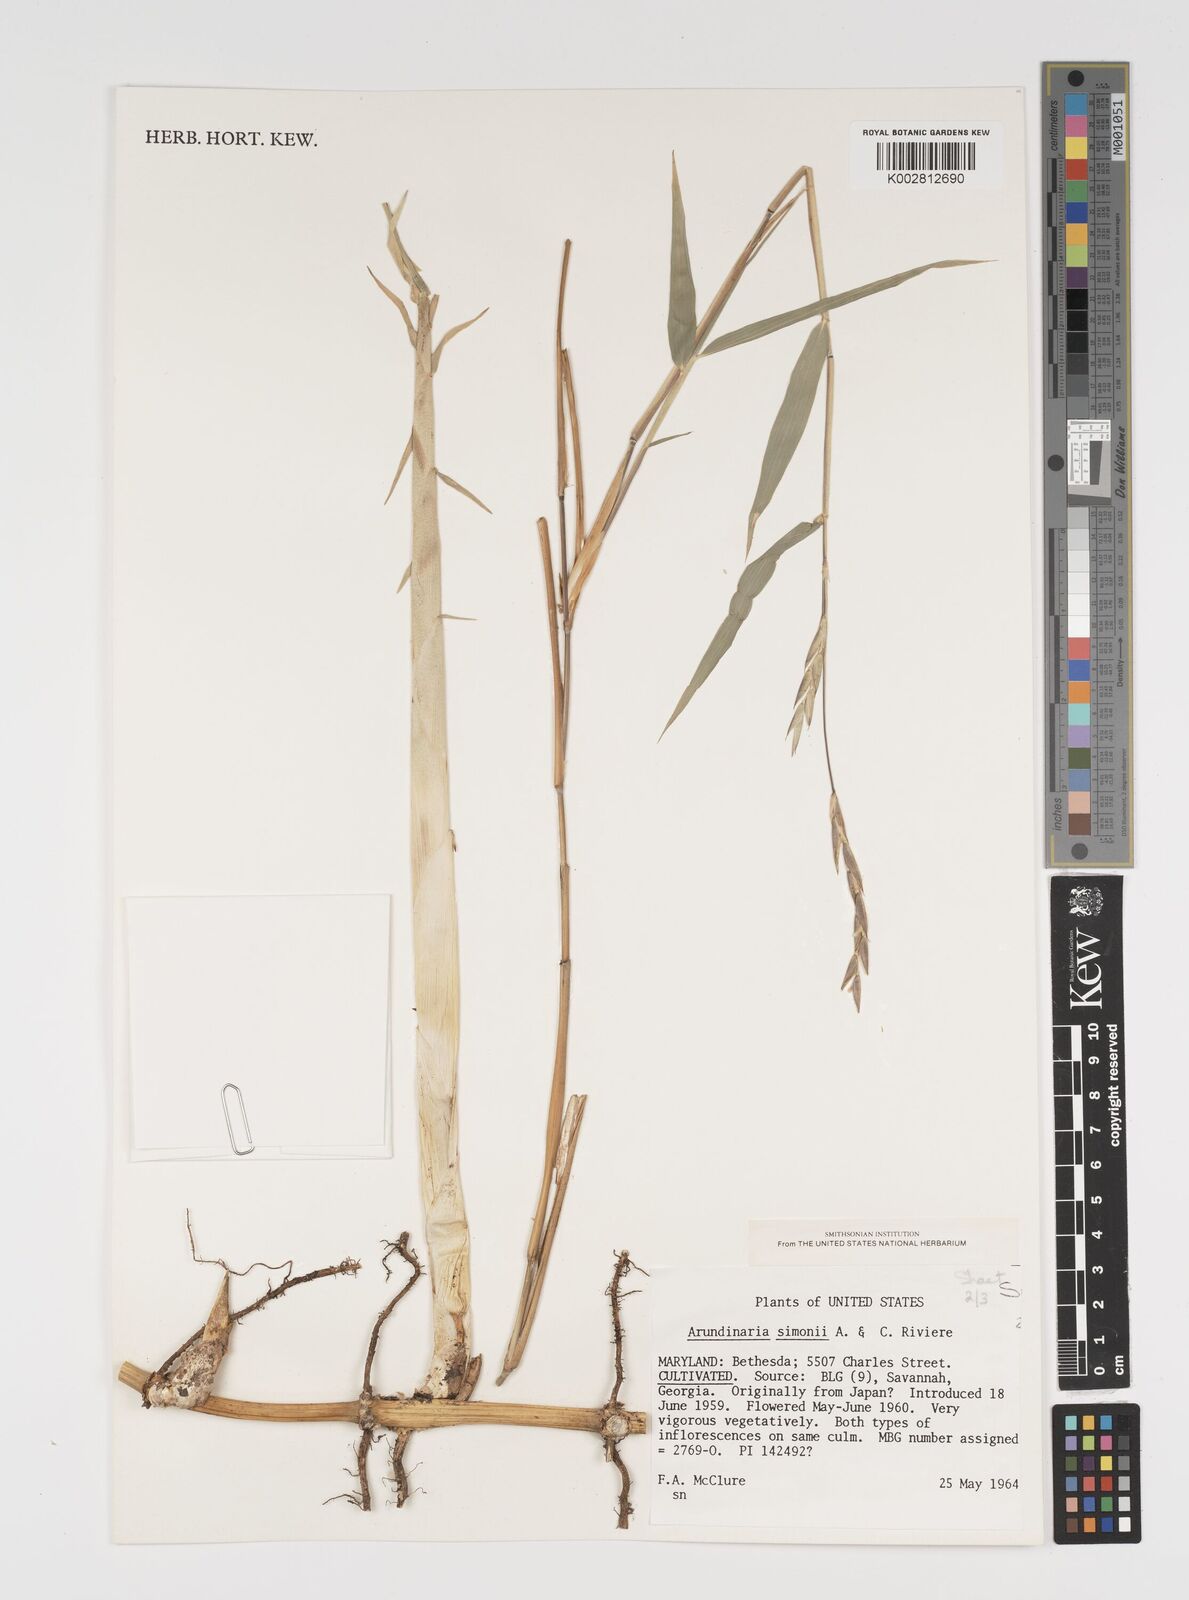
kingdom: Plantae
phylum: Tracheophyta
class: Liliopsida
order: Poales
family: Poaceae
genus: Arundinaria
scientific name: Arundinaria
